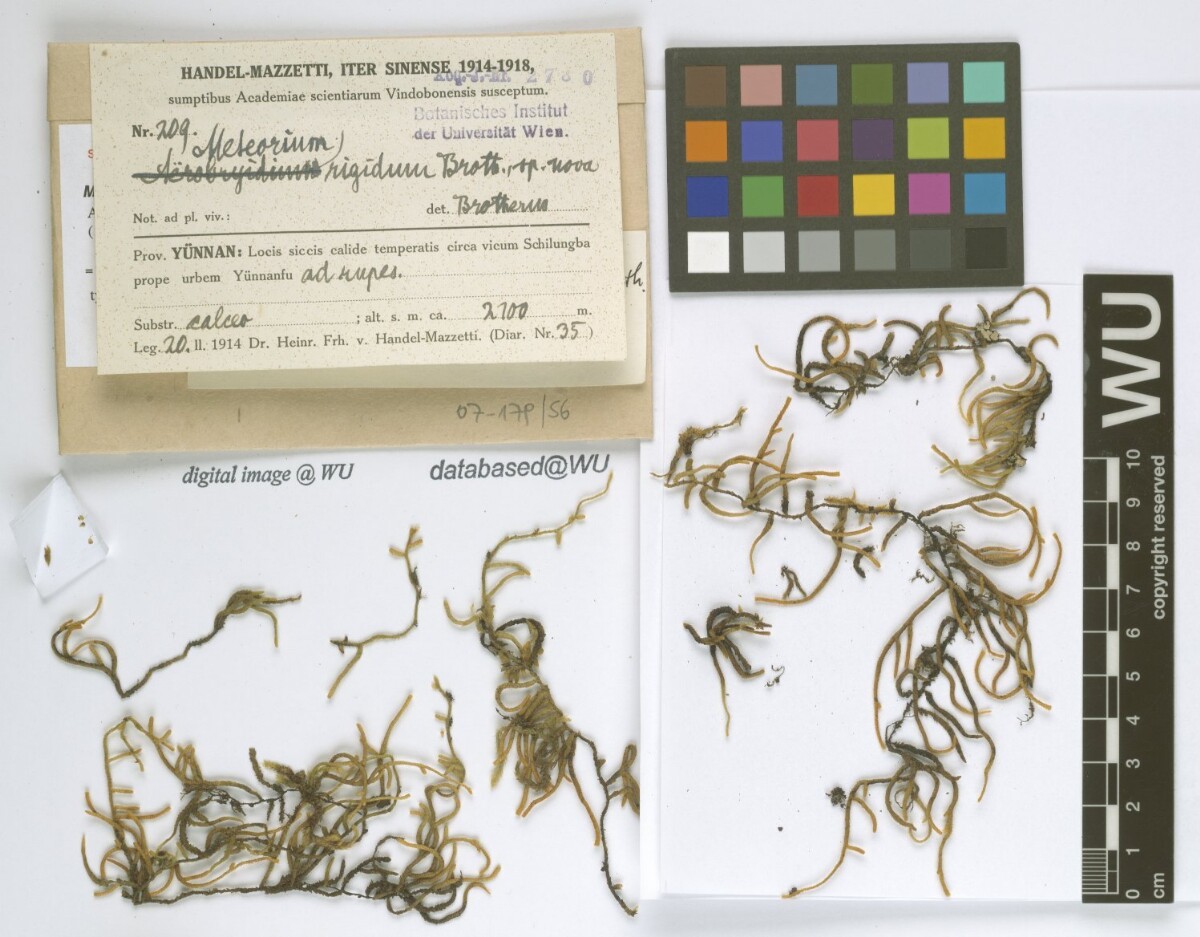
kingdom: Plantae
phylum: Bryophyta
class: Bryopsida
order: Hypnales
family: Meteoriaceae
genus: Meteorium
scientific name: Meteorium buchananii
